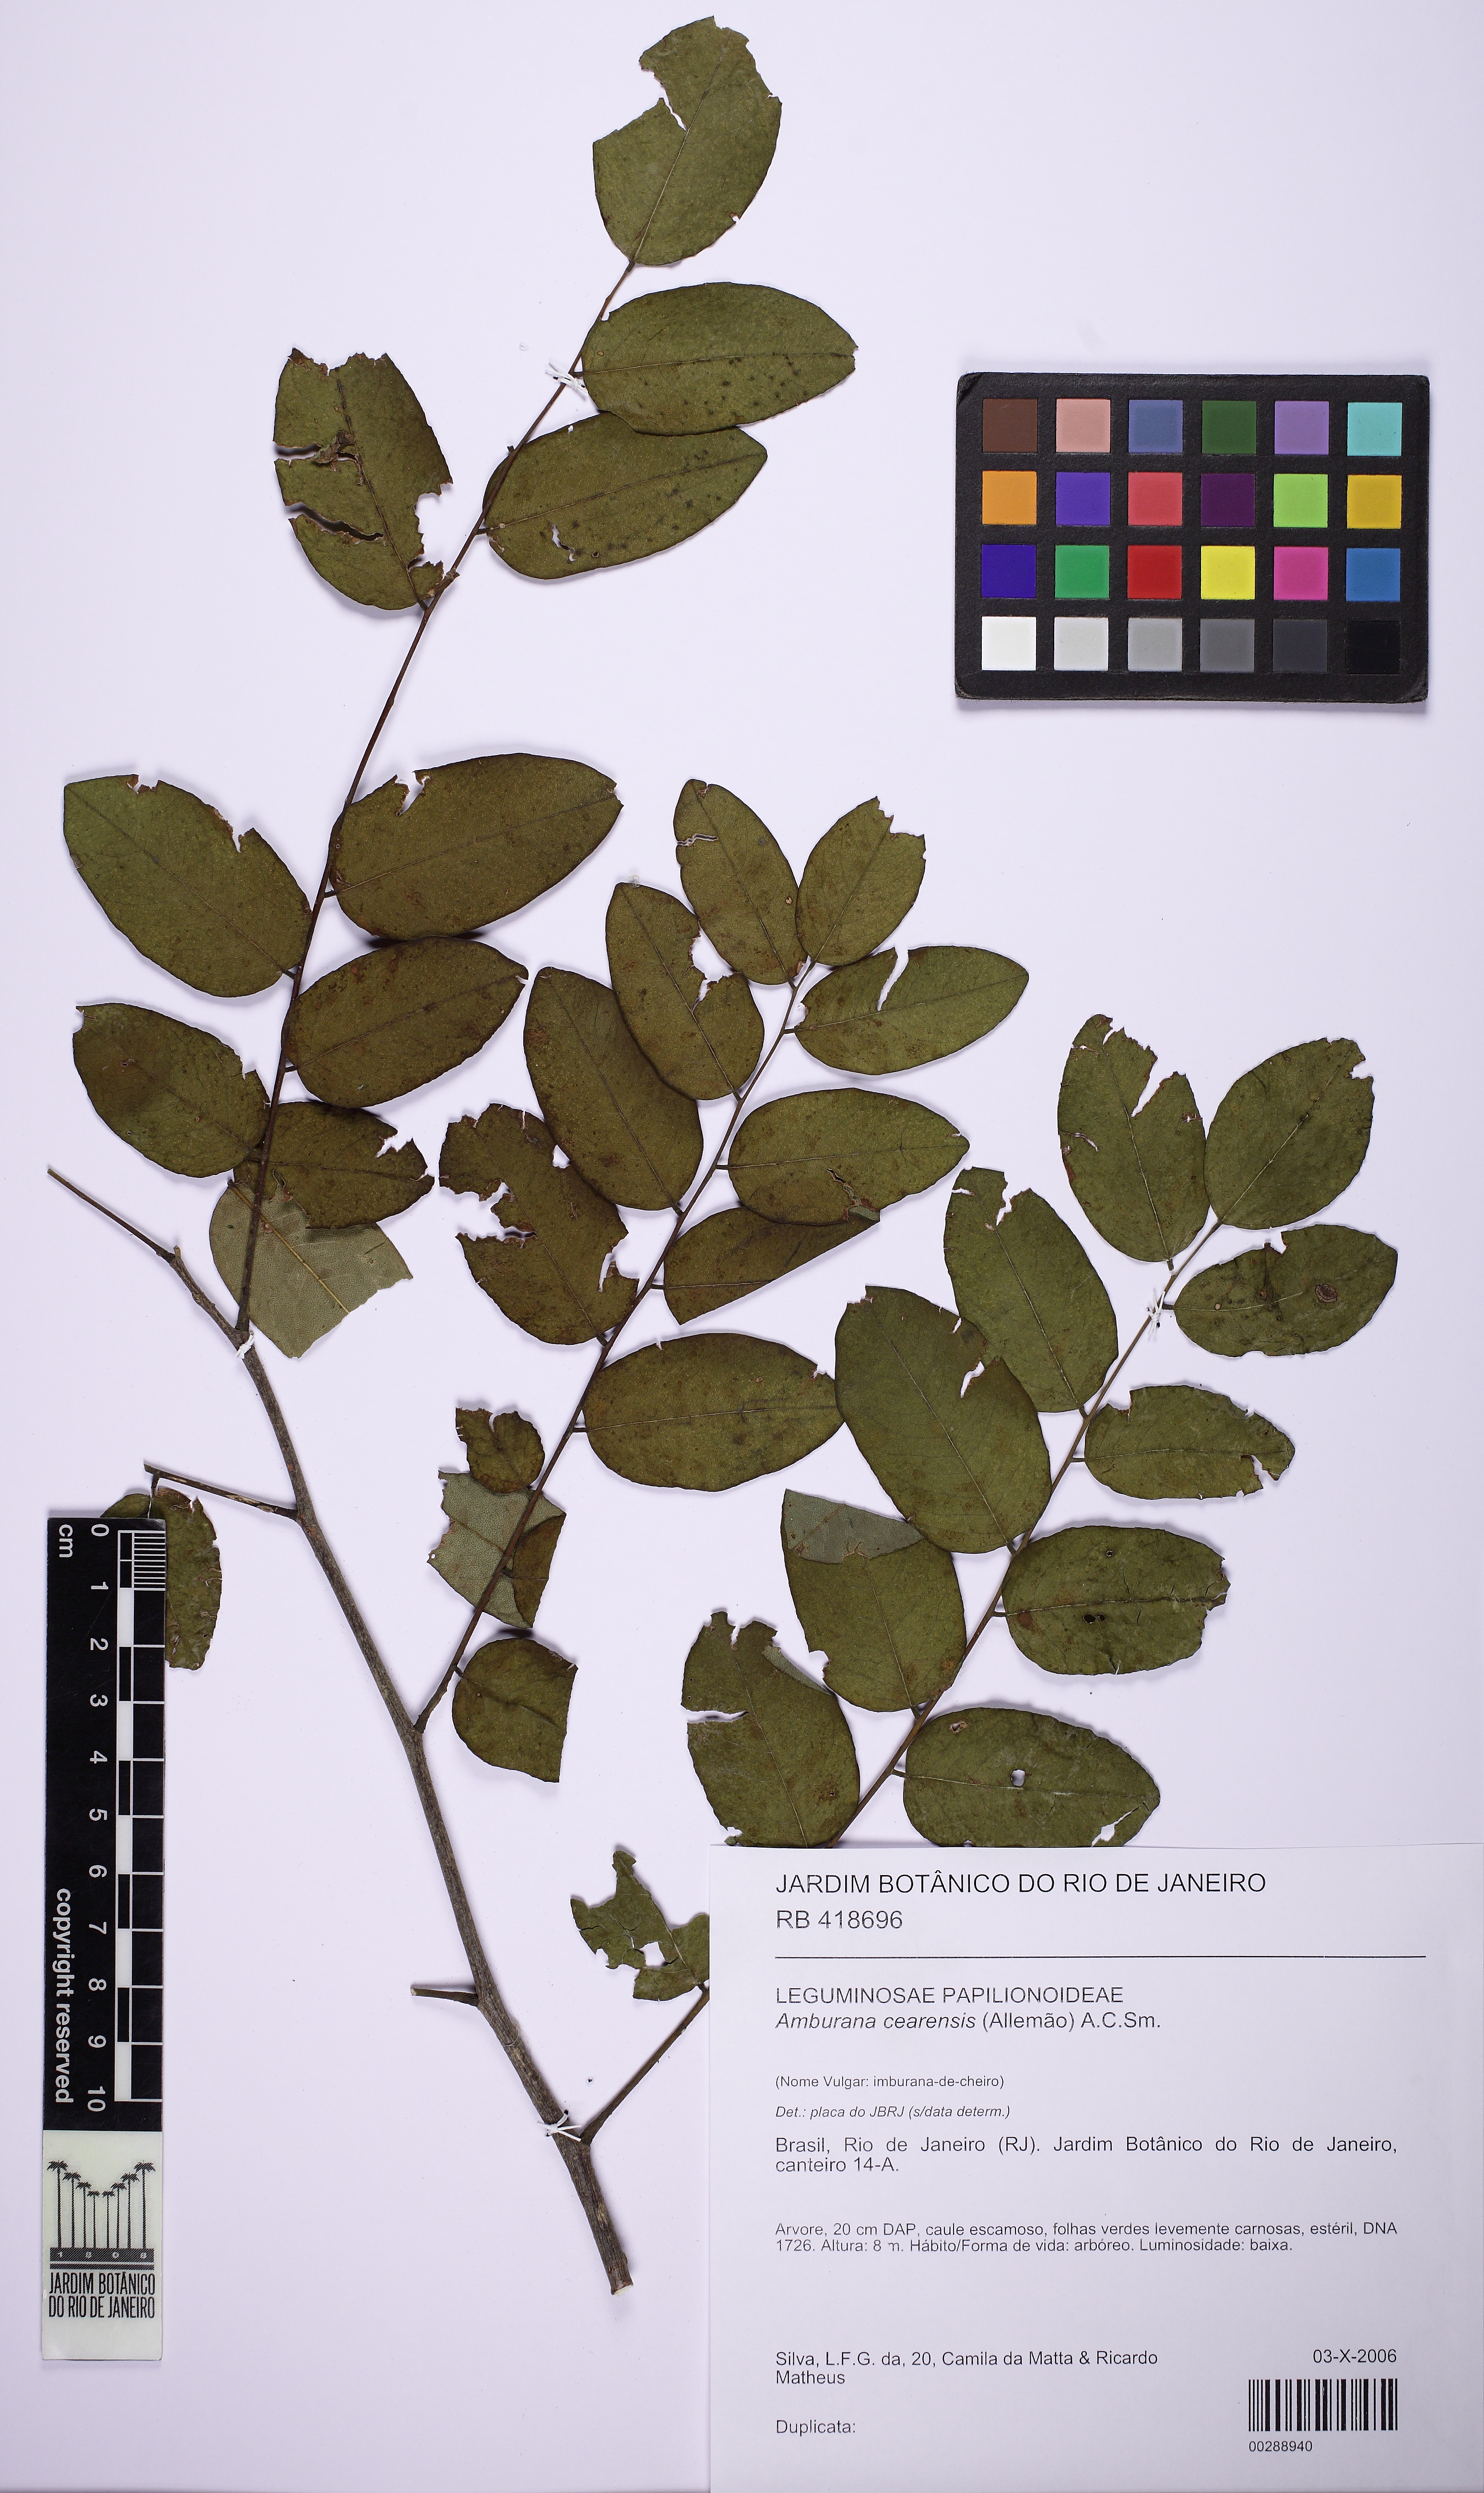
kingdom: Plantae
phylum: Tracheophyta
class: Magnoliopsida
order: Fabales
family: Fabaceae
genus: Amburana
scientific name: Amburana cearensis
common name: Cerejeira
